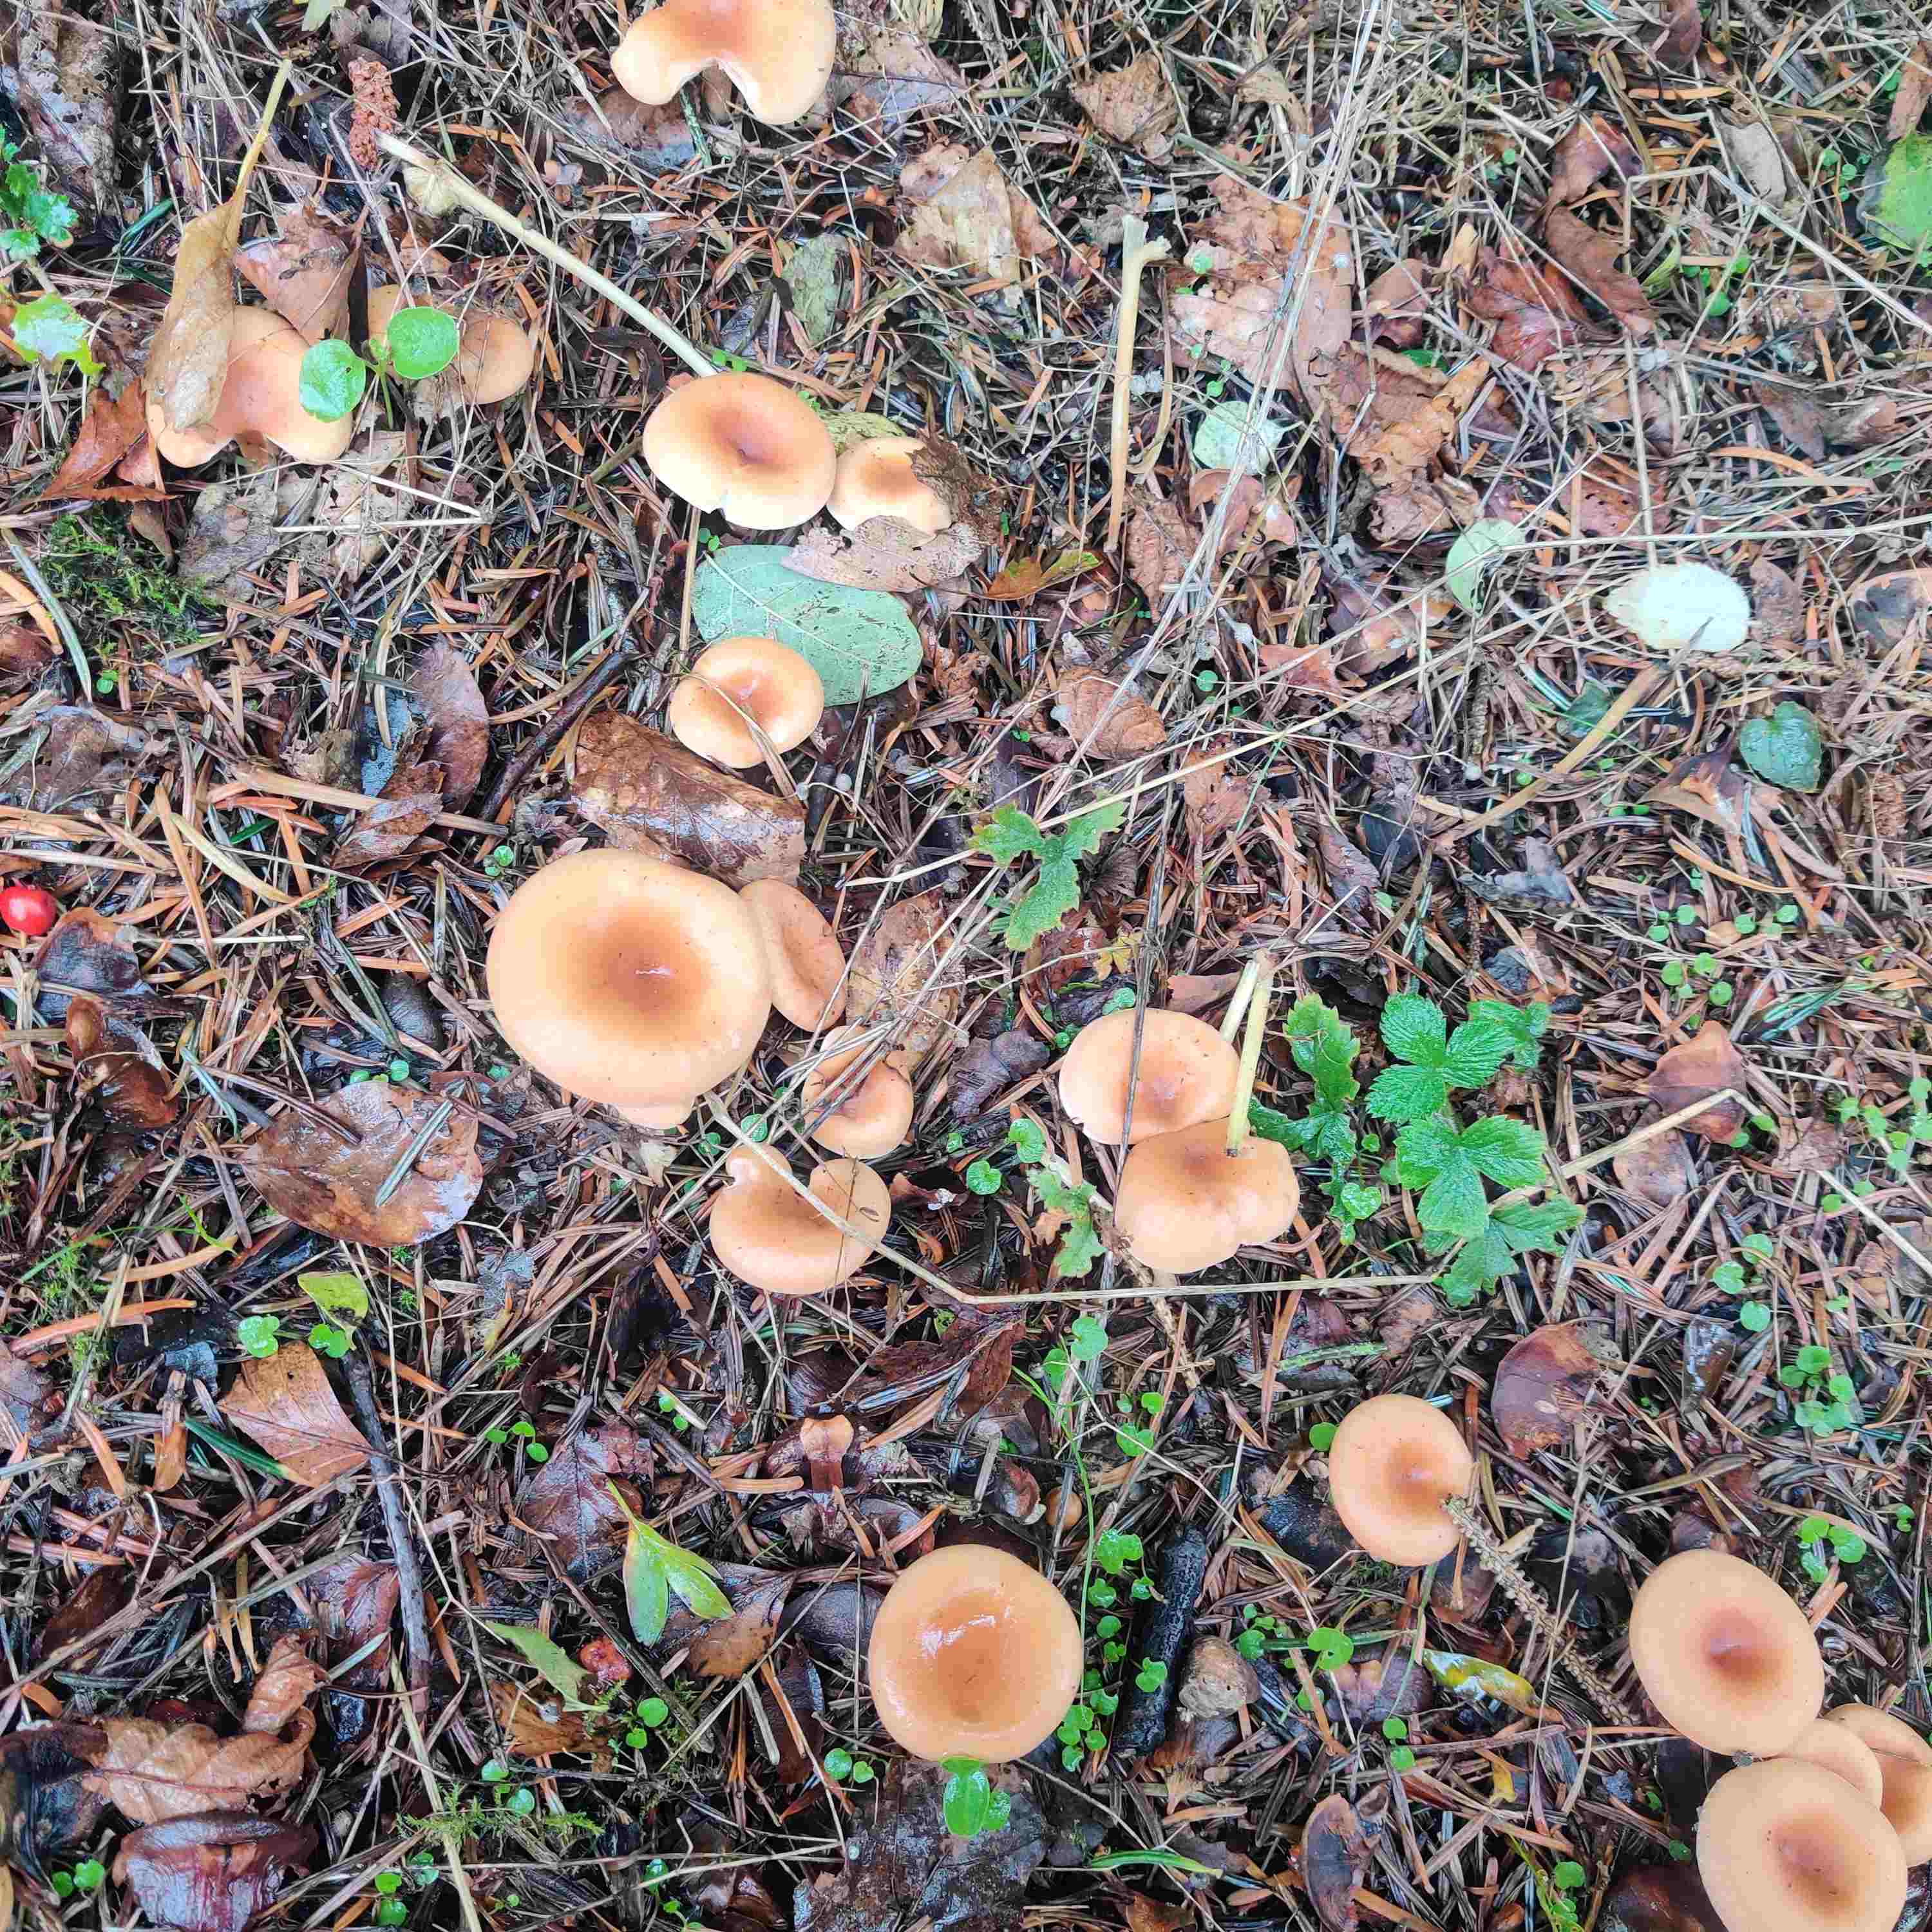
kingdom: Fungi
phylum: Basidiomycota
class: Agaricomycetes
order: Agaricales
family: Tricholomataceae
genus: Paralepista
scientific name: Paralepista flaccida
